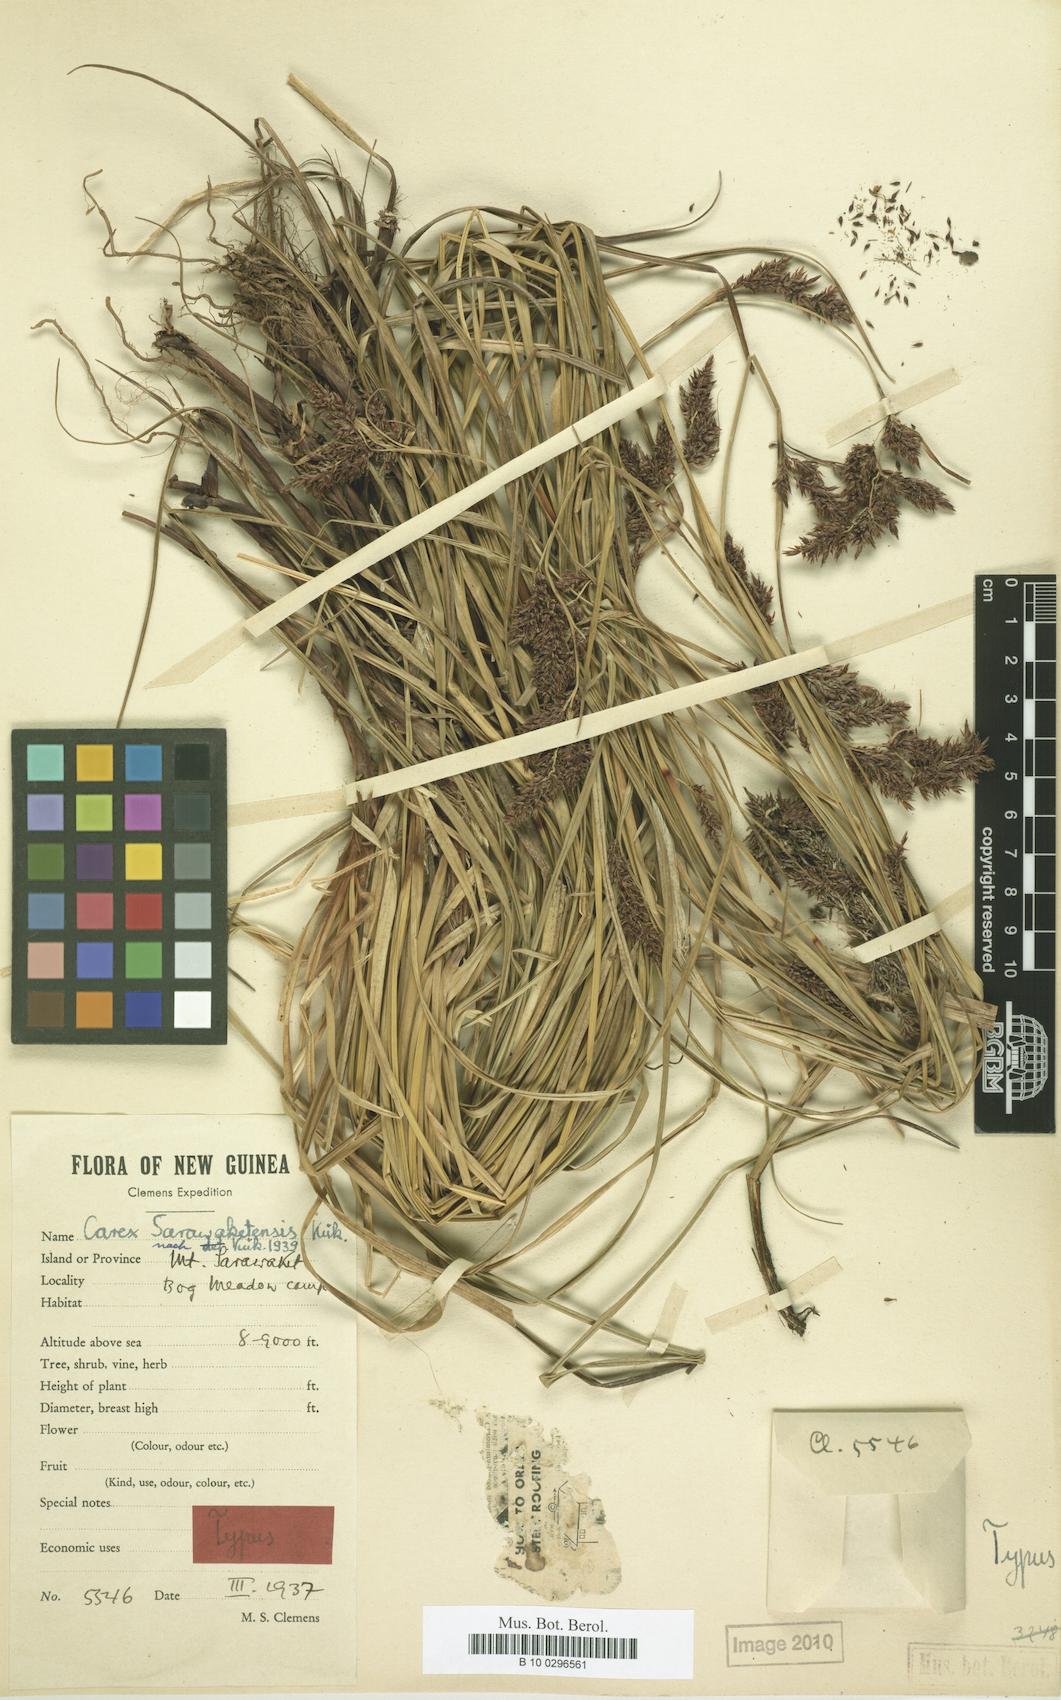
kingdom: Plantae
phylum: Tracheophyta
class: Liliopsida
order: Poales
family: Cyperaceae
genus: Carex
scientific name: Carex sarawaketensis
